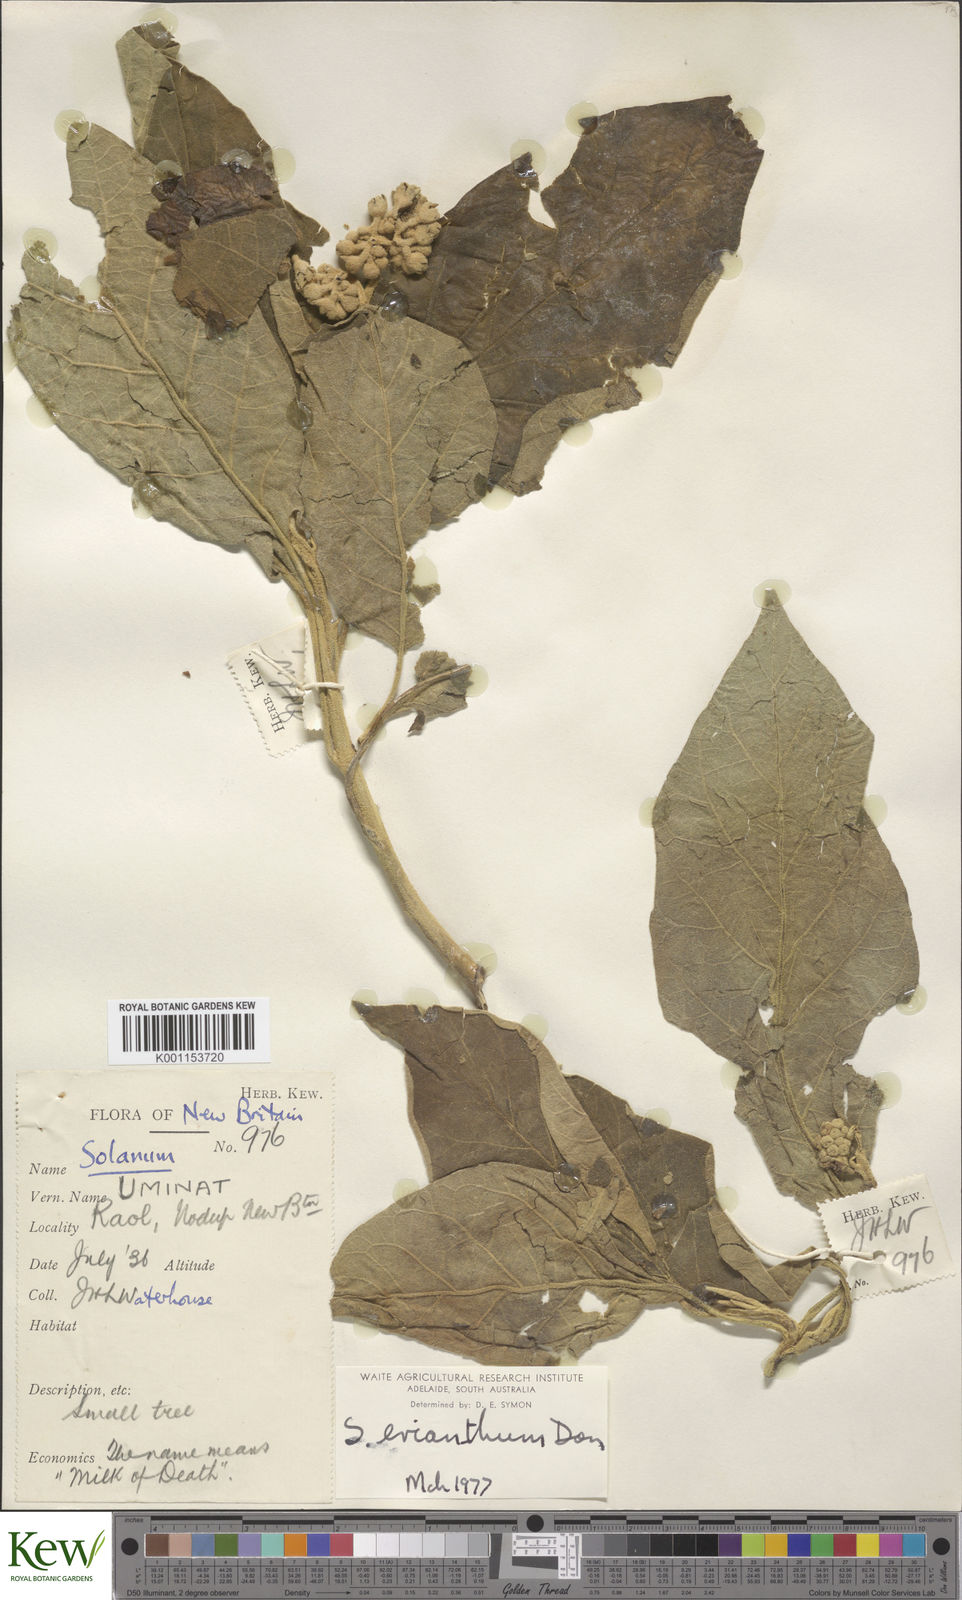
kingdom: Plantae
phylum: Tracheophyta
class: Magnoliopsida
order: Solanales
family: Solanaceae
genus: Solanum
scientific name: Solanum erianthum
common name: Tobacco-tree
